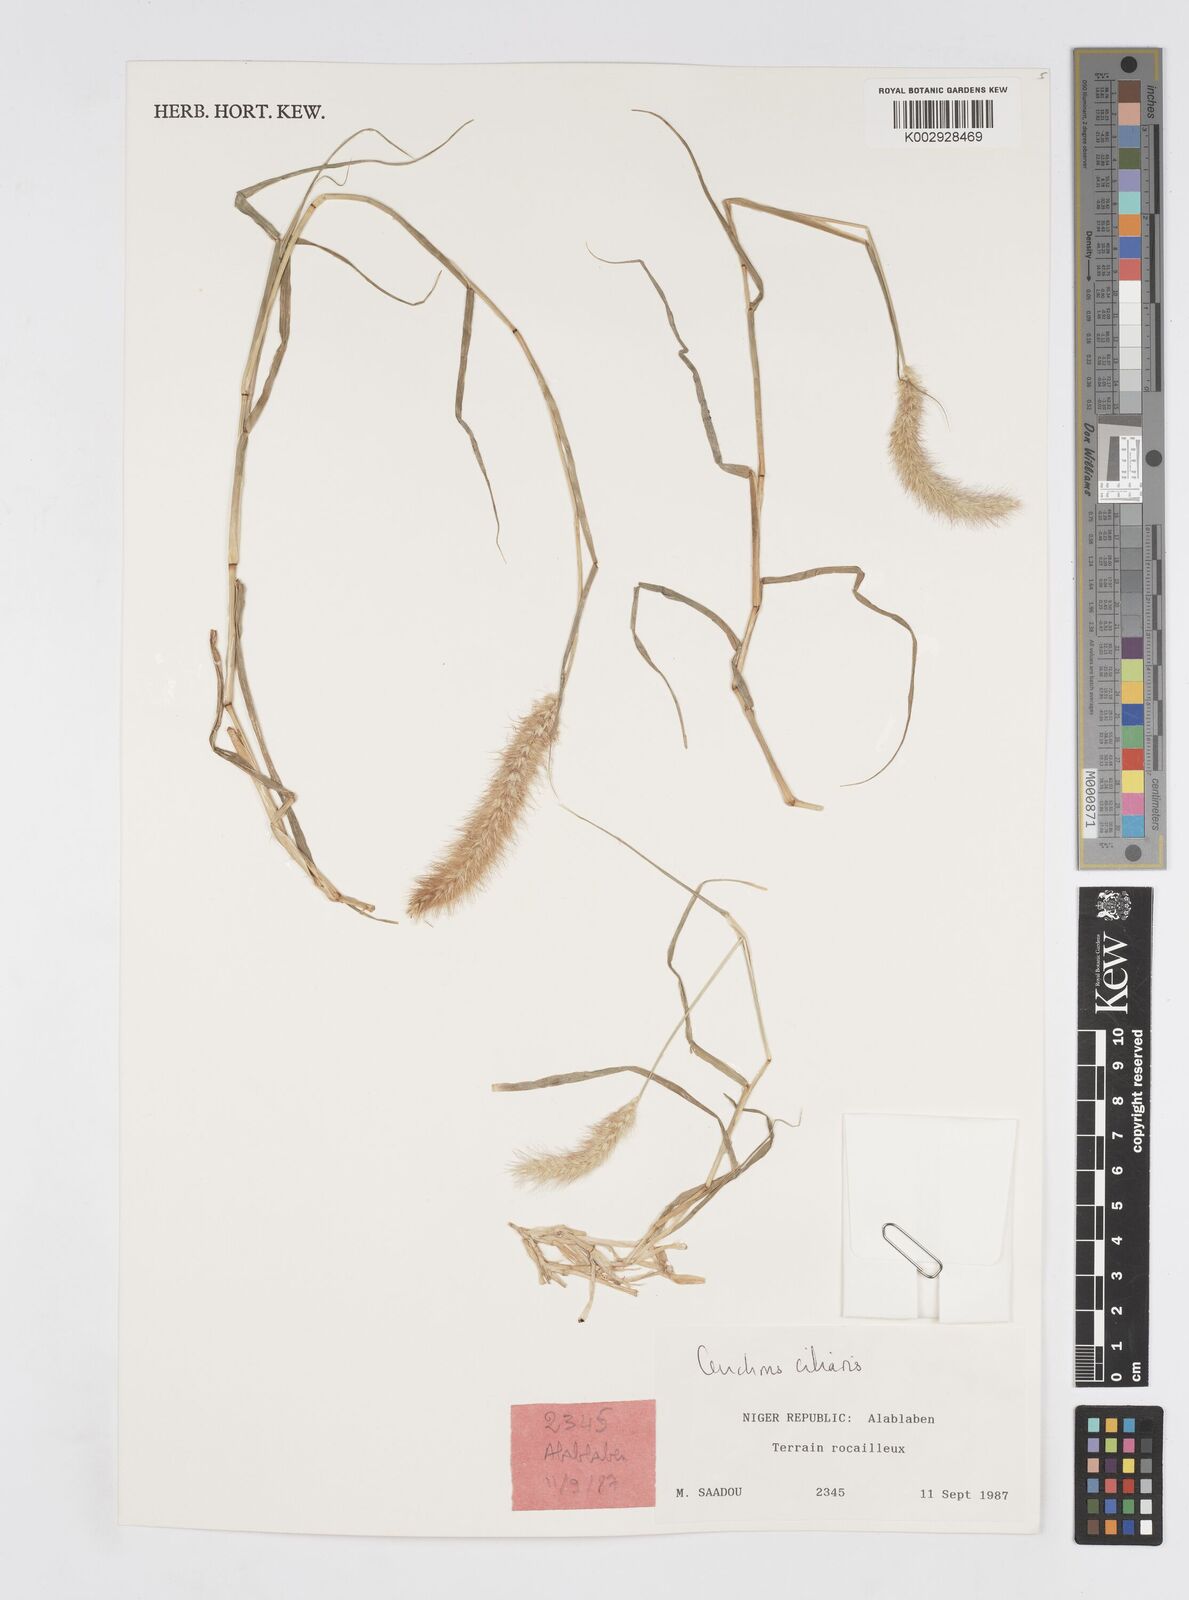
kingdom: Plantae
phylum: Tracheophyta
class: Liliopsida
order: Poales
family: Poaceae
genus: Cenchrus
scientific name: Cenchrus ciliaris
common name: Buffelgrass
